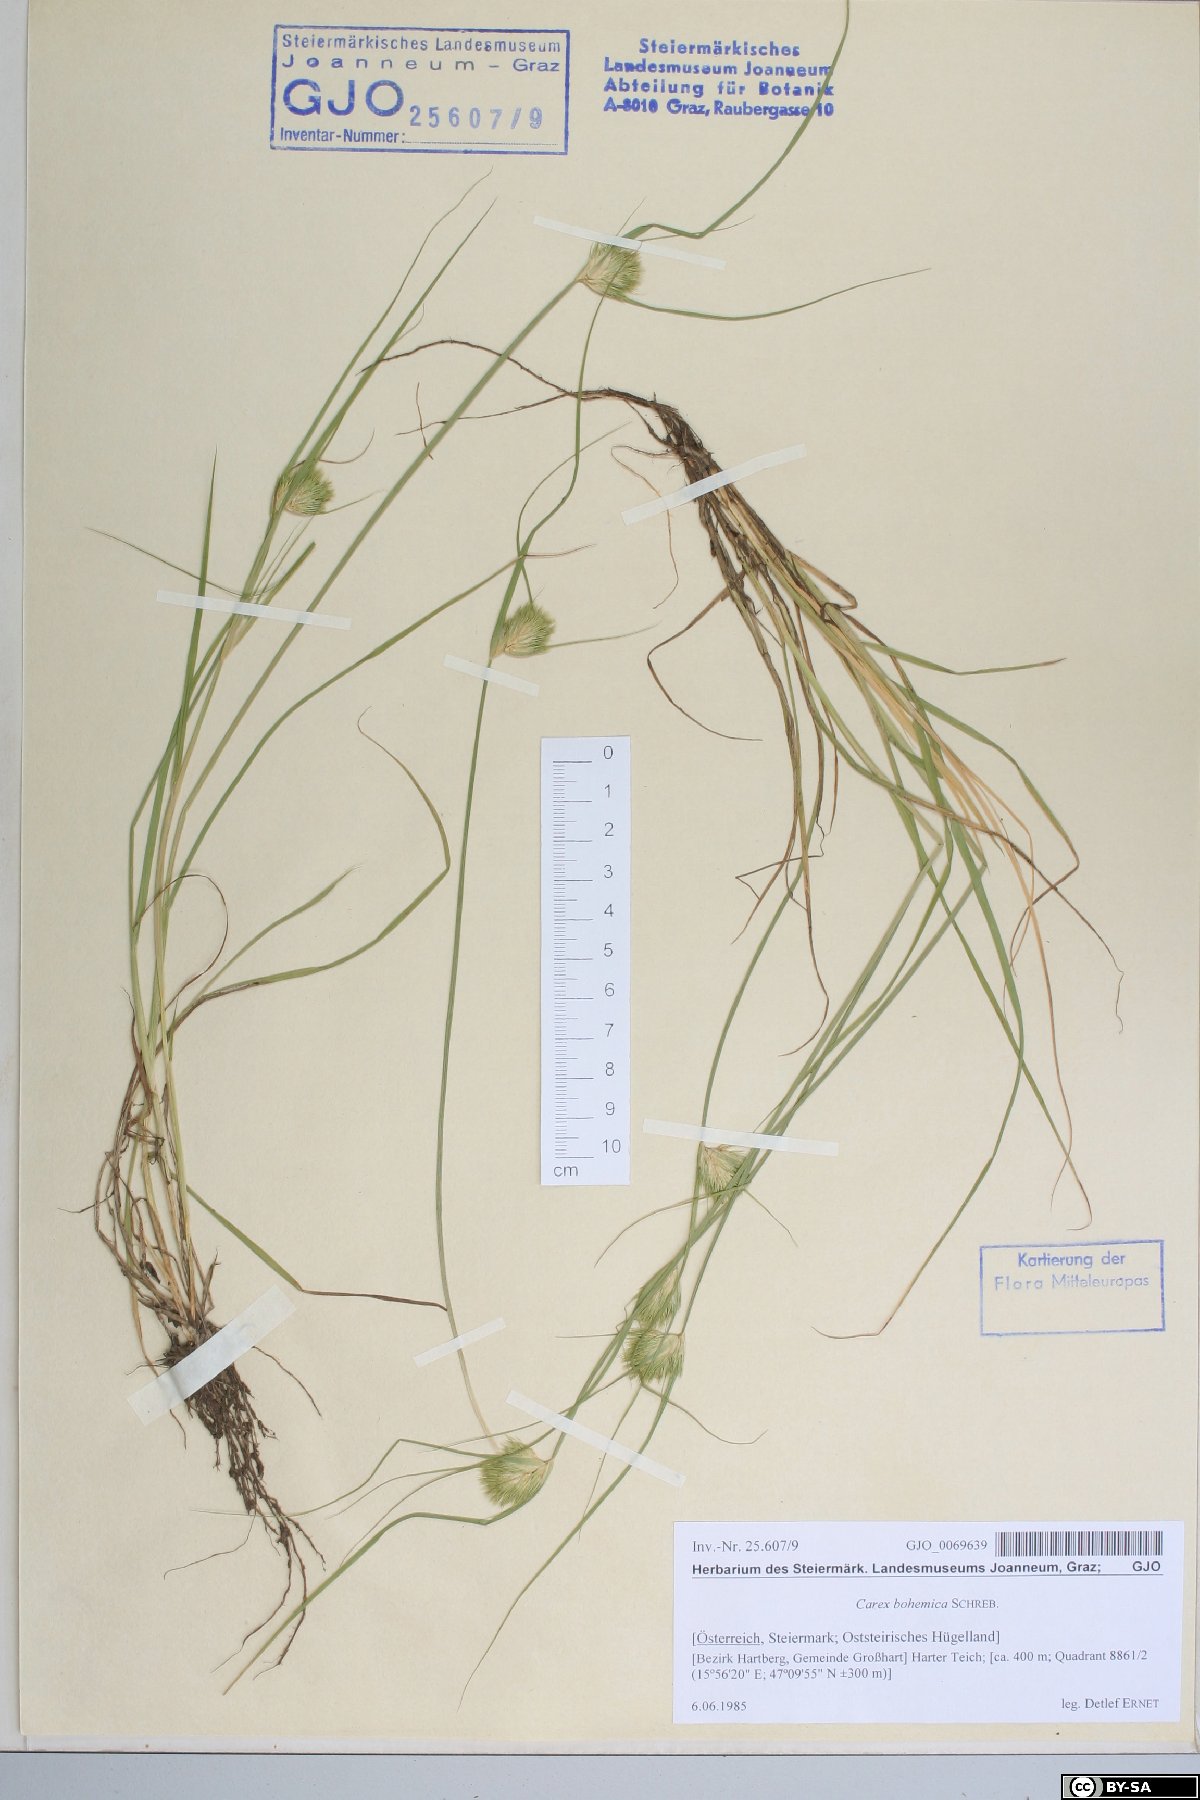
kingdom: Plantae
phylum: Tracheophyta
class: Liliopsida
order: Poales
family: Cyperaceae
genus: Carex
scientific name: Carex bohemica
